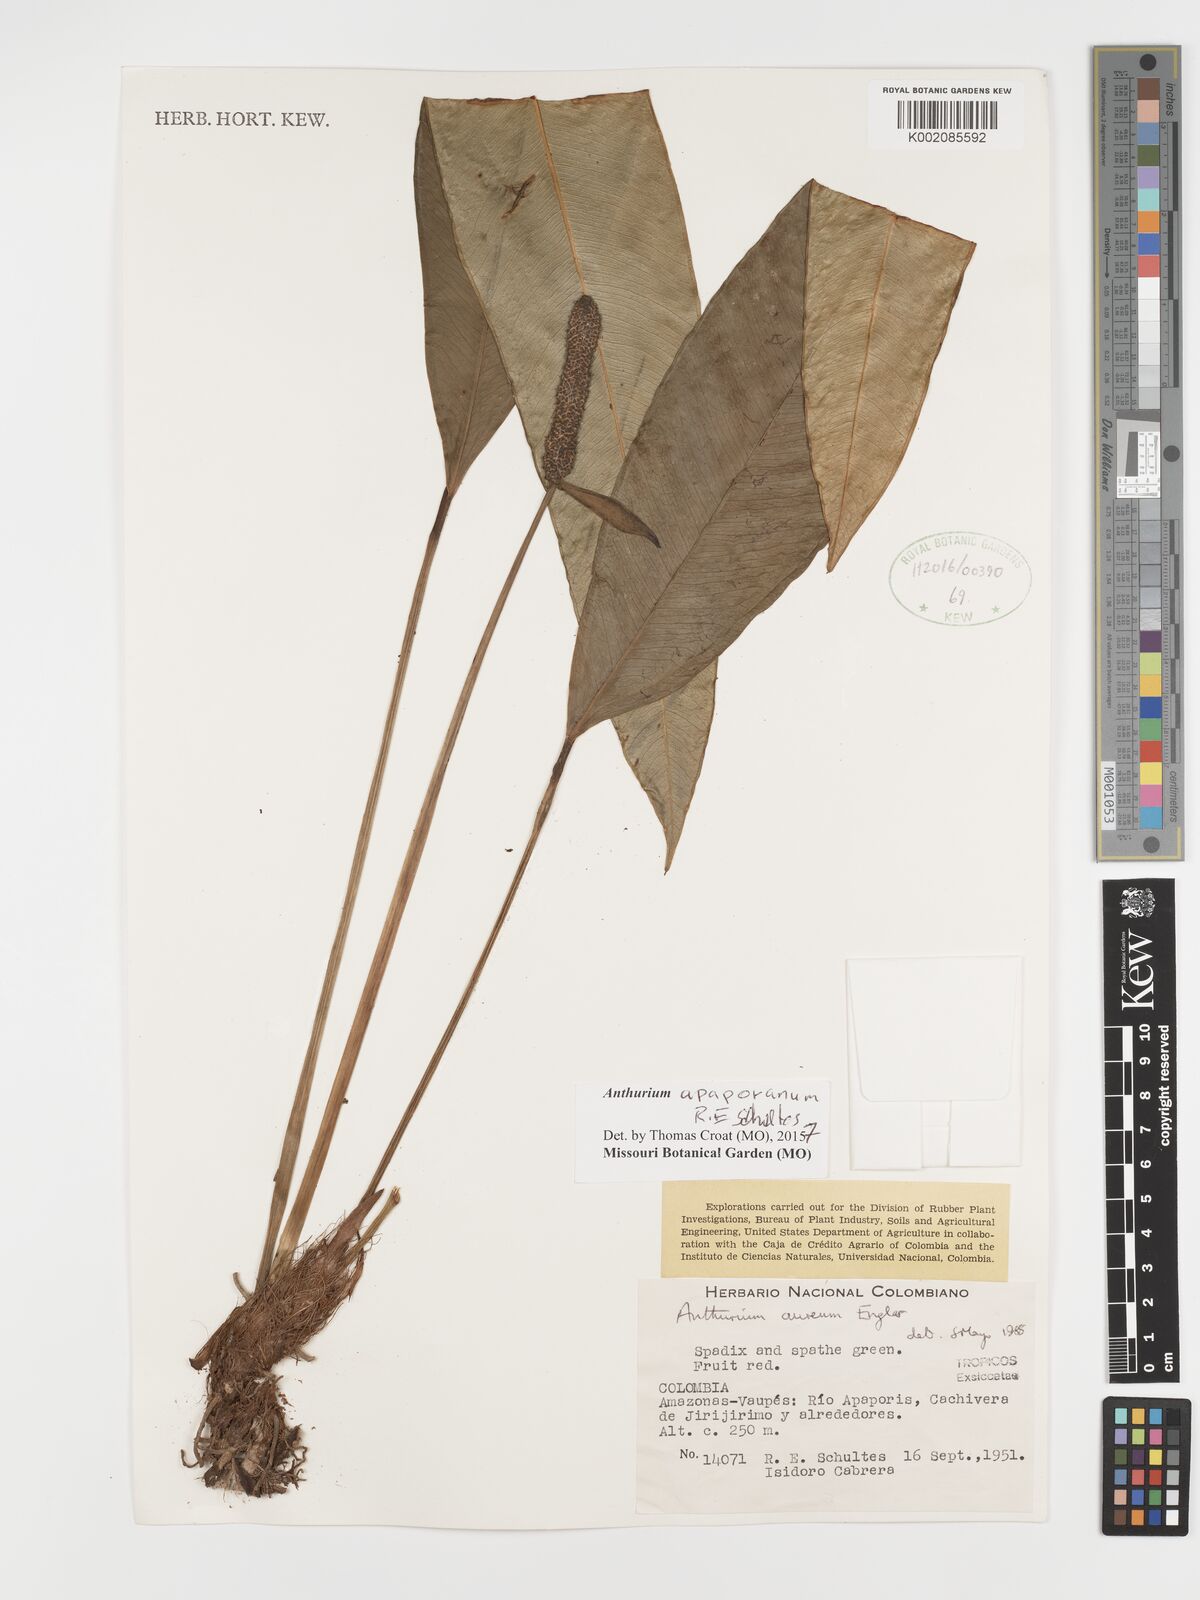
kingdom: Plantae
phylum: Tracheophyta
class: Liliopsida
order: Alismatales
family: Araceae
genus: Anthurium
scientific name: Anthurium apaporanum
